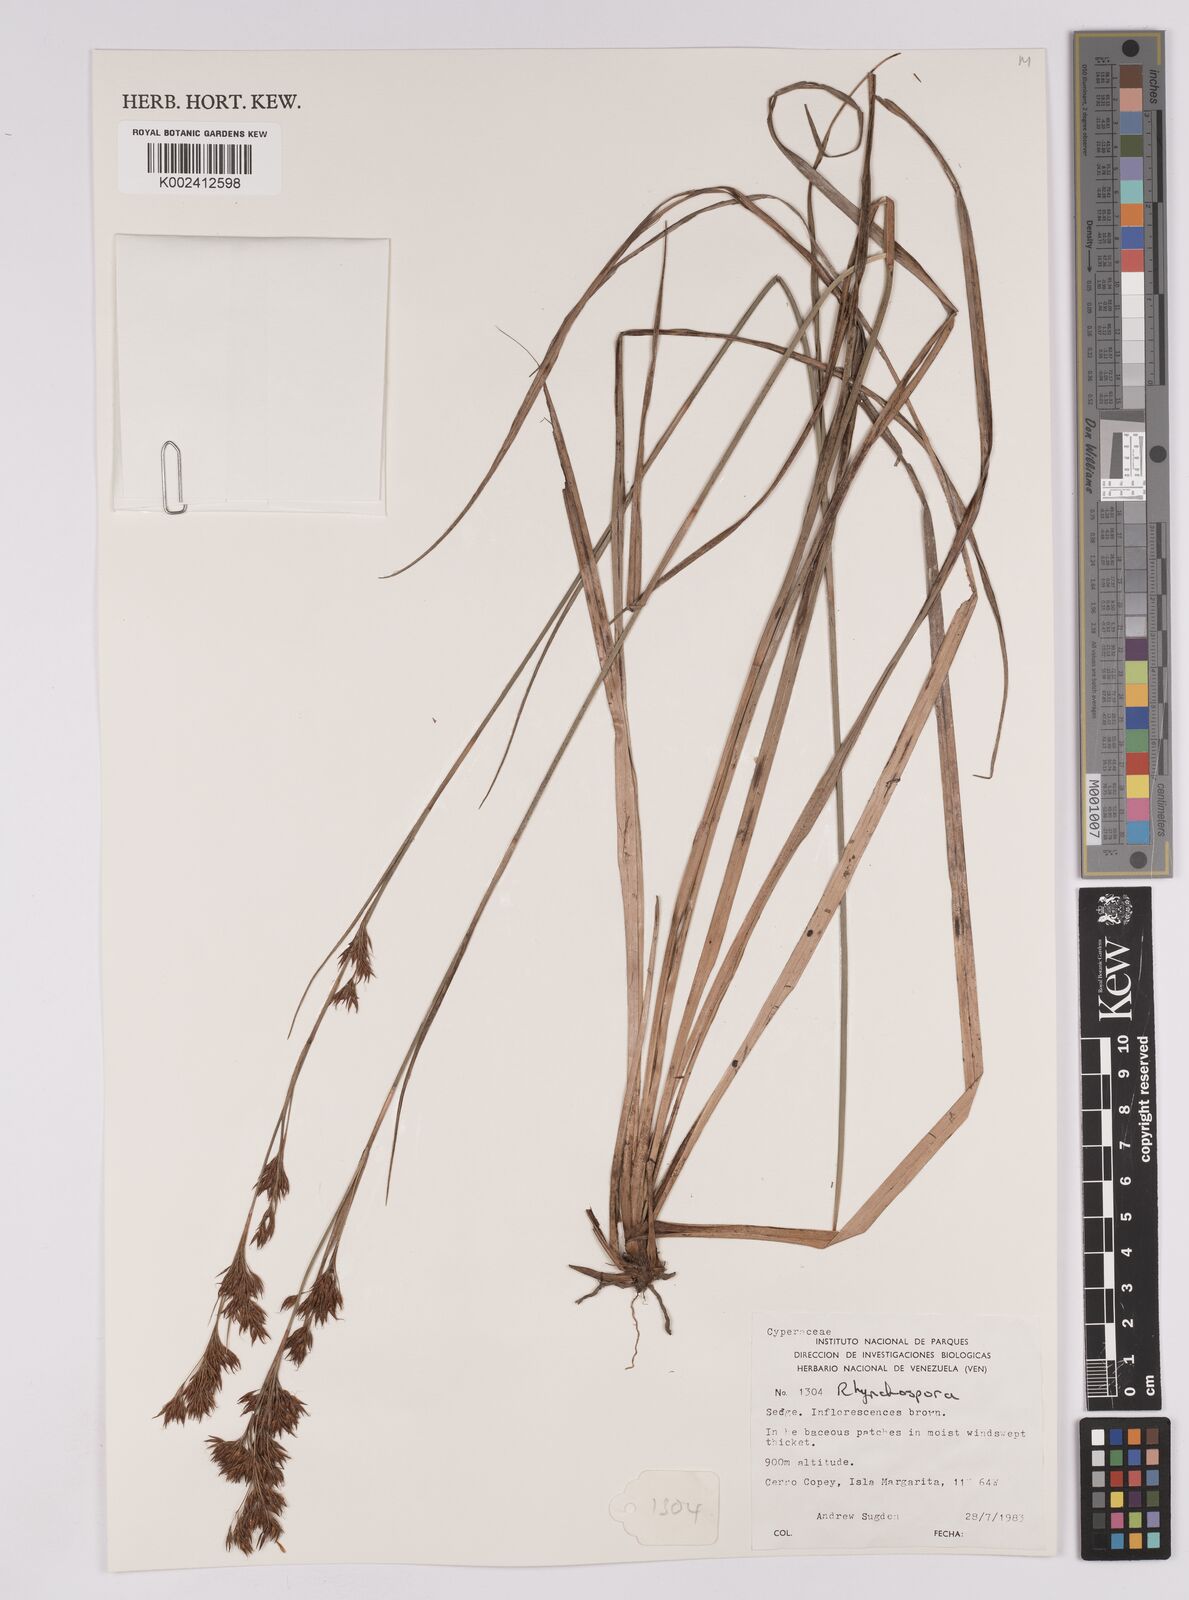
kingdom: Plantae
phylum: Tracheophyta
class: Liliopsida
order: Poales
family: Cyperaceae
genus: Rhynchospora
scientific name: Rhynchospora
